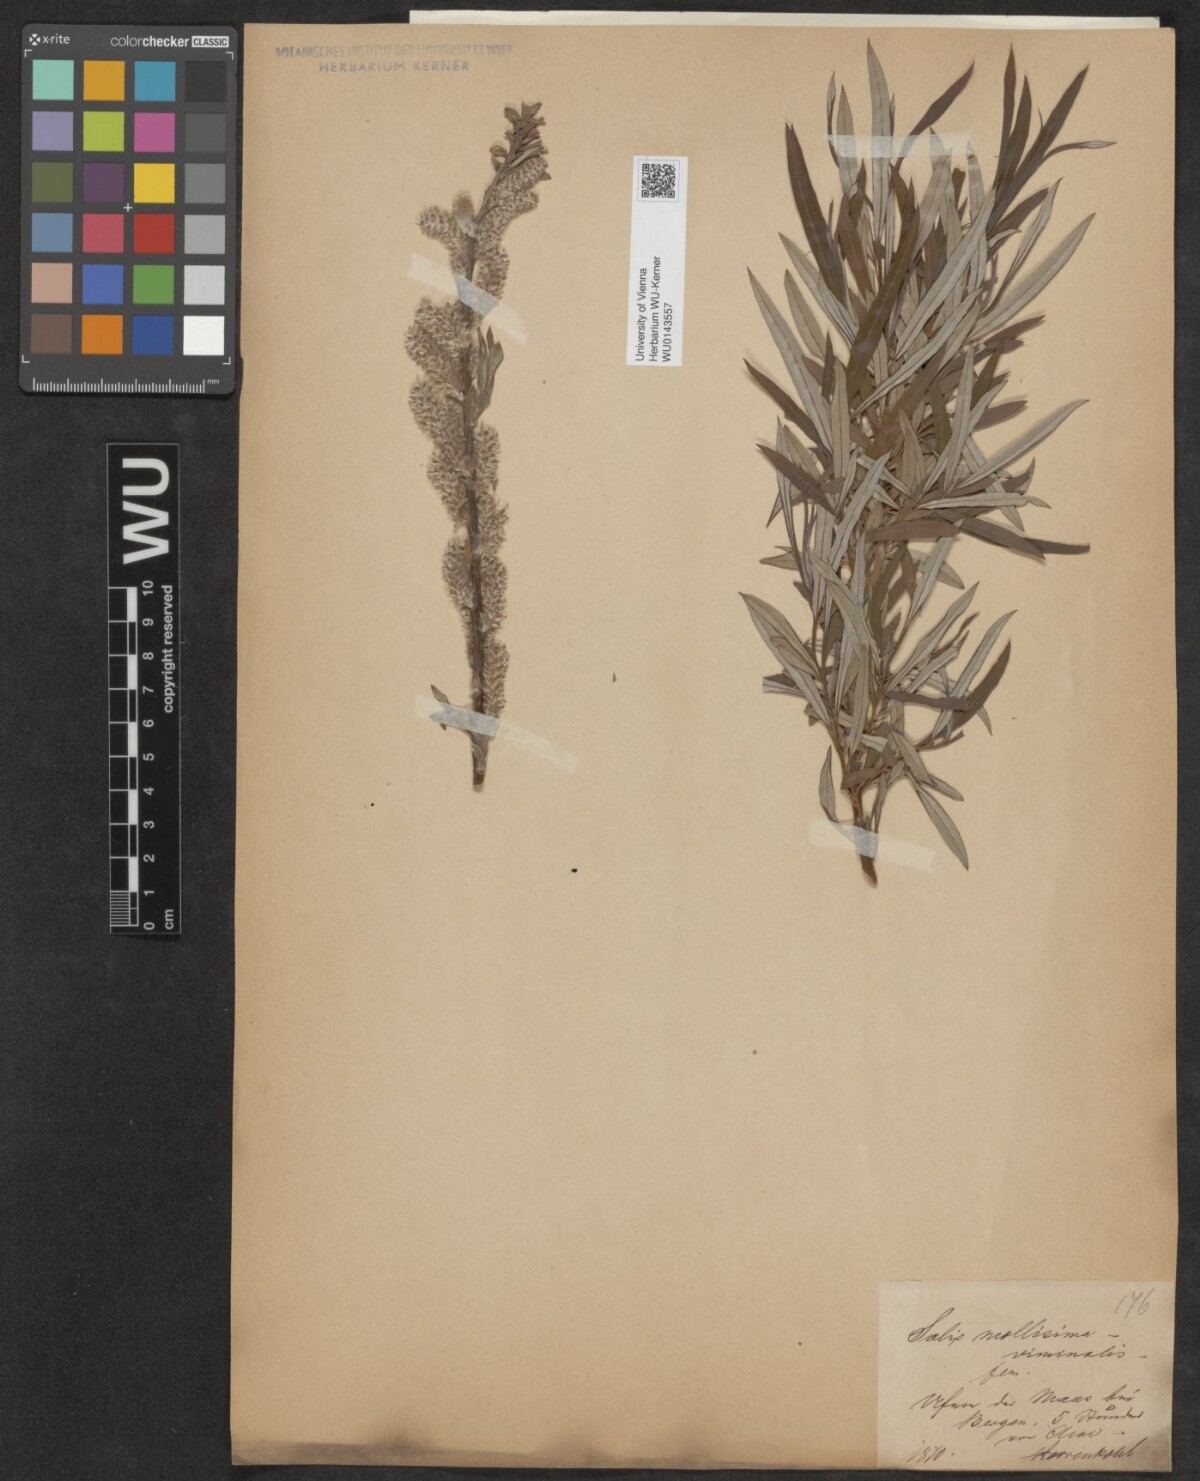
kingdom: Plantae
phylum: Tracheophyta
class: Magnoliopsida
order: Malpighiales
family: Salicaceae
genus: Salix
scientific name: Salix viminalis
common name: Osier
